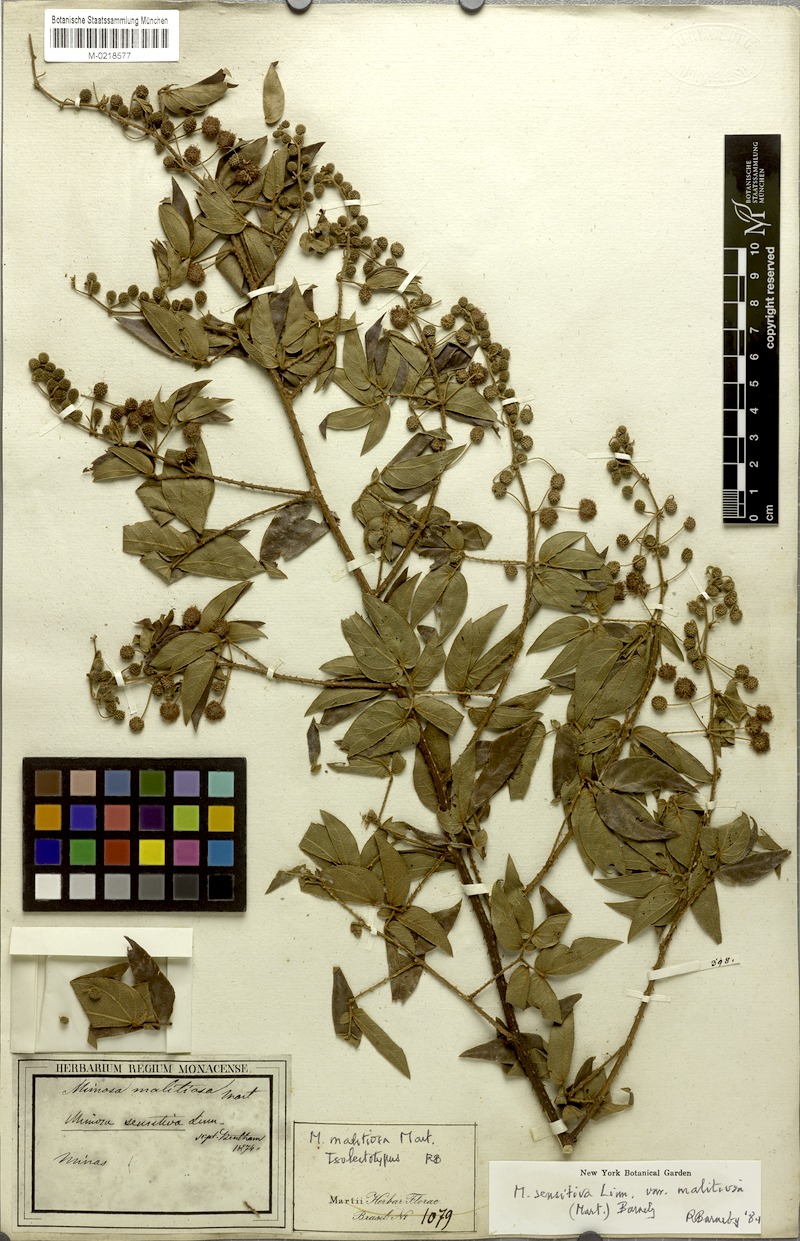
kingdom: Plantae
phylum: Tracheophyta
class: Magnoliopsida
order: Fabales
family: Fabaceae
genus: Mimosa
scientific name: Mimosa sensitiva
